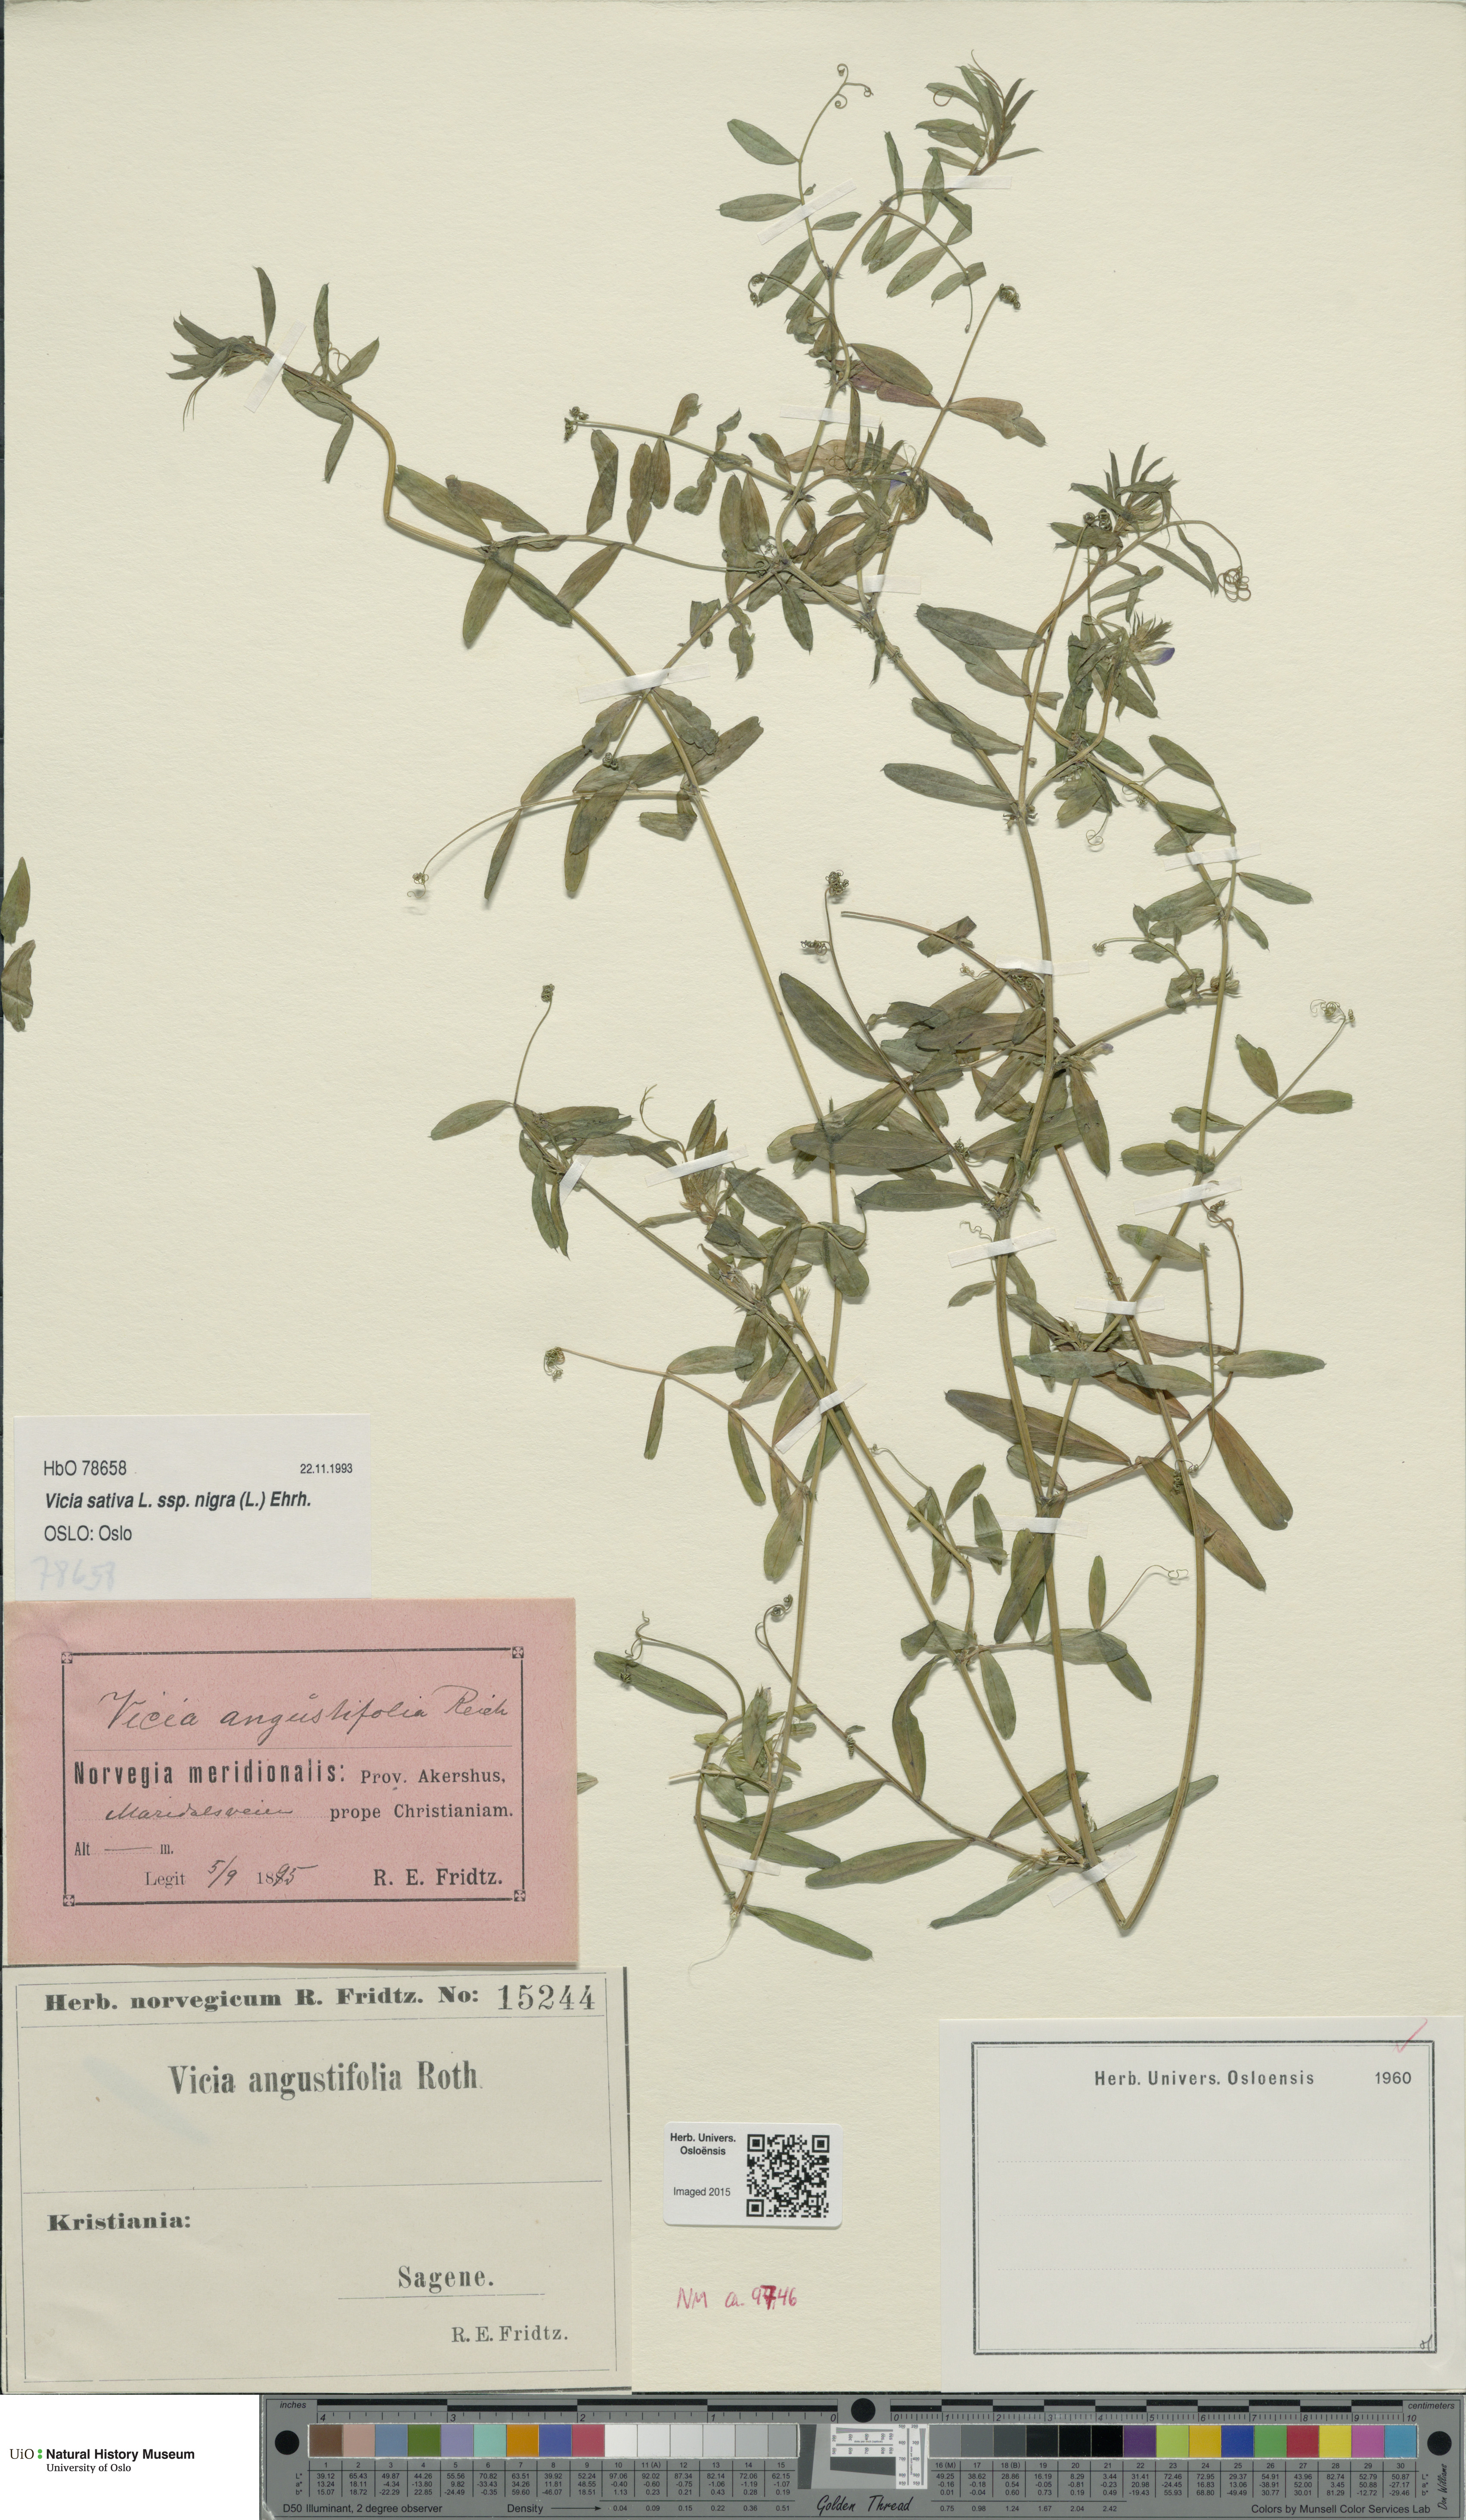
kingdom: Plantae
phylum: Tracheophyta
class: Magnoliopsida
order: Fabales
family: Fabaceae
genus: Vicia
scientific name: Vicia sativa
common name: Garden vetch
